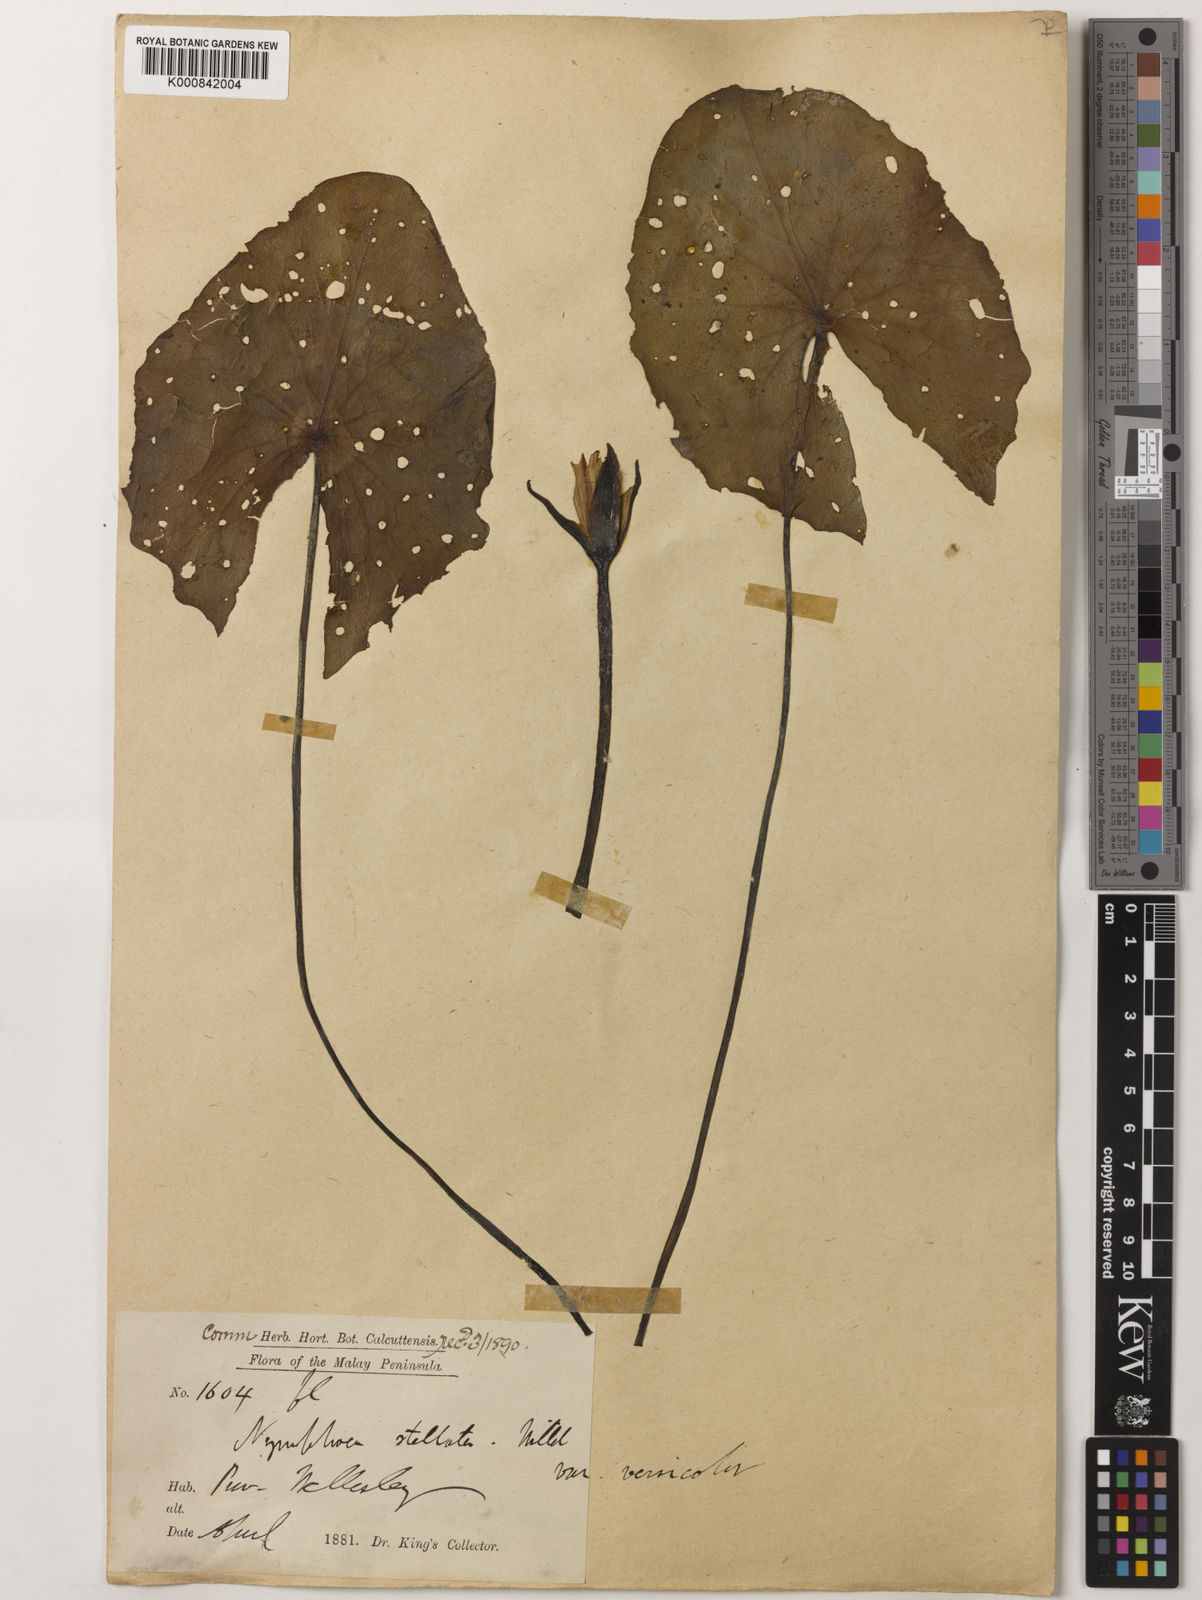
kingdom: Plantae
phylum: Tracheophyta
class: Magnoliopsida
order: Nymphaeales
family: Nymphaeaceae
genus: Nymphaea
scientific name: Nymphaea nouchali
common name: Blue lotus
